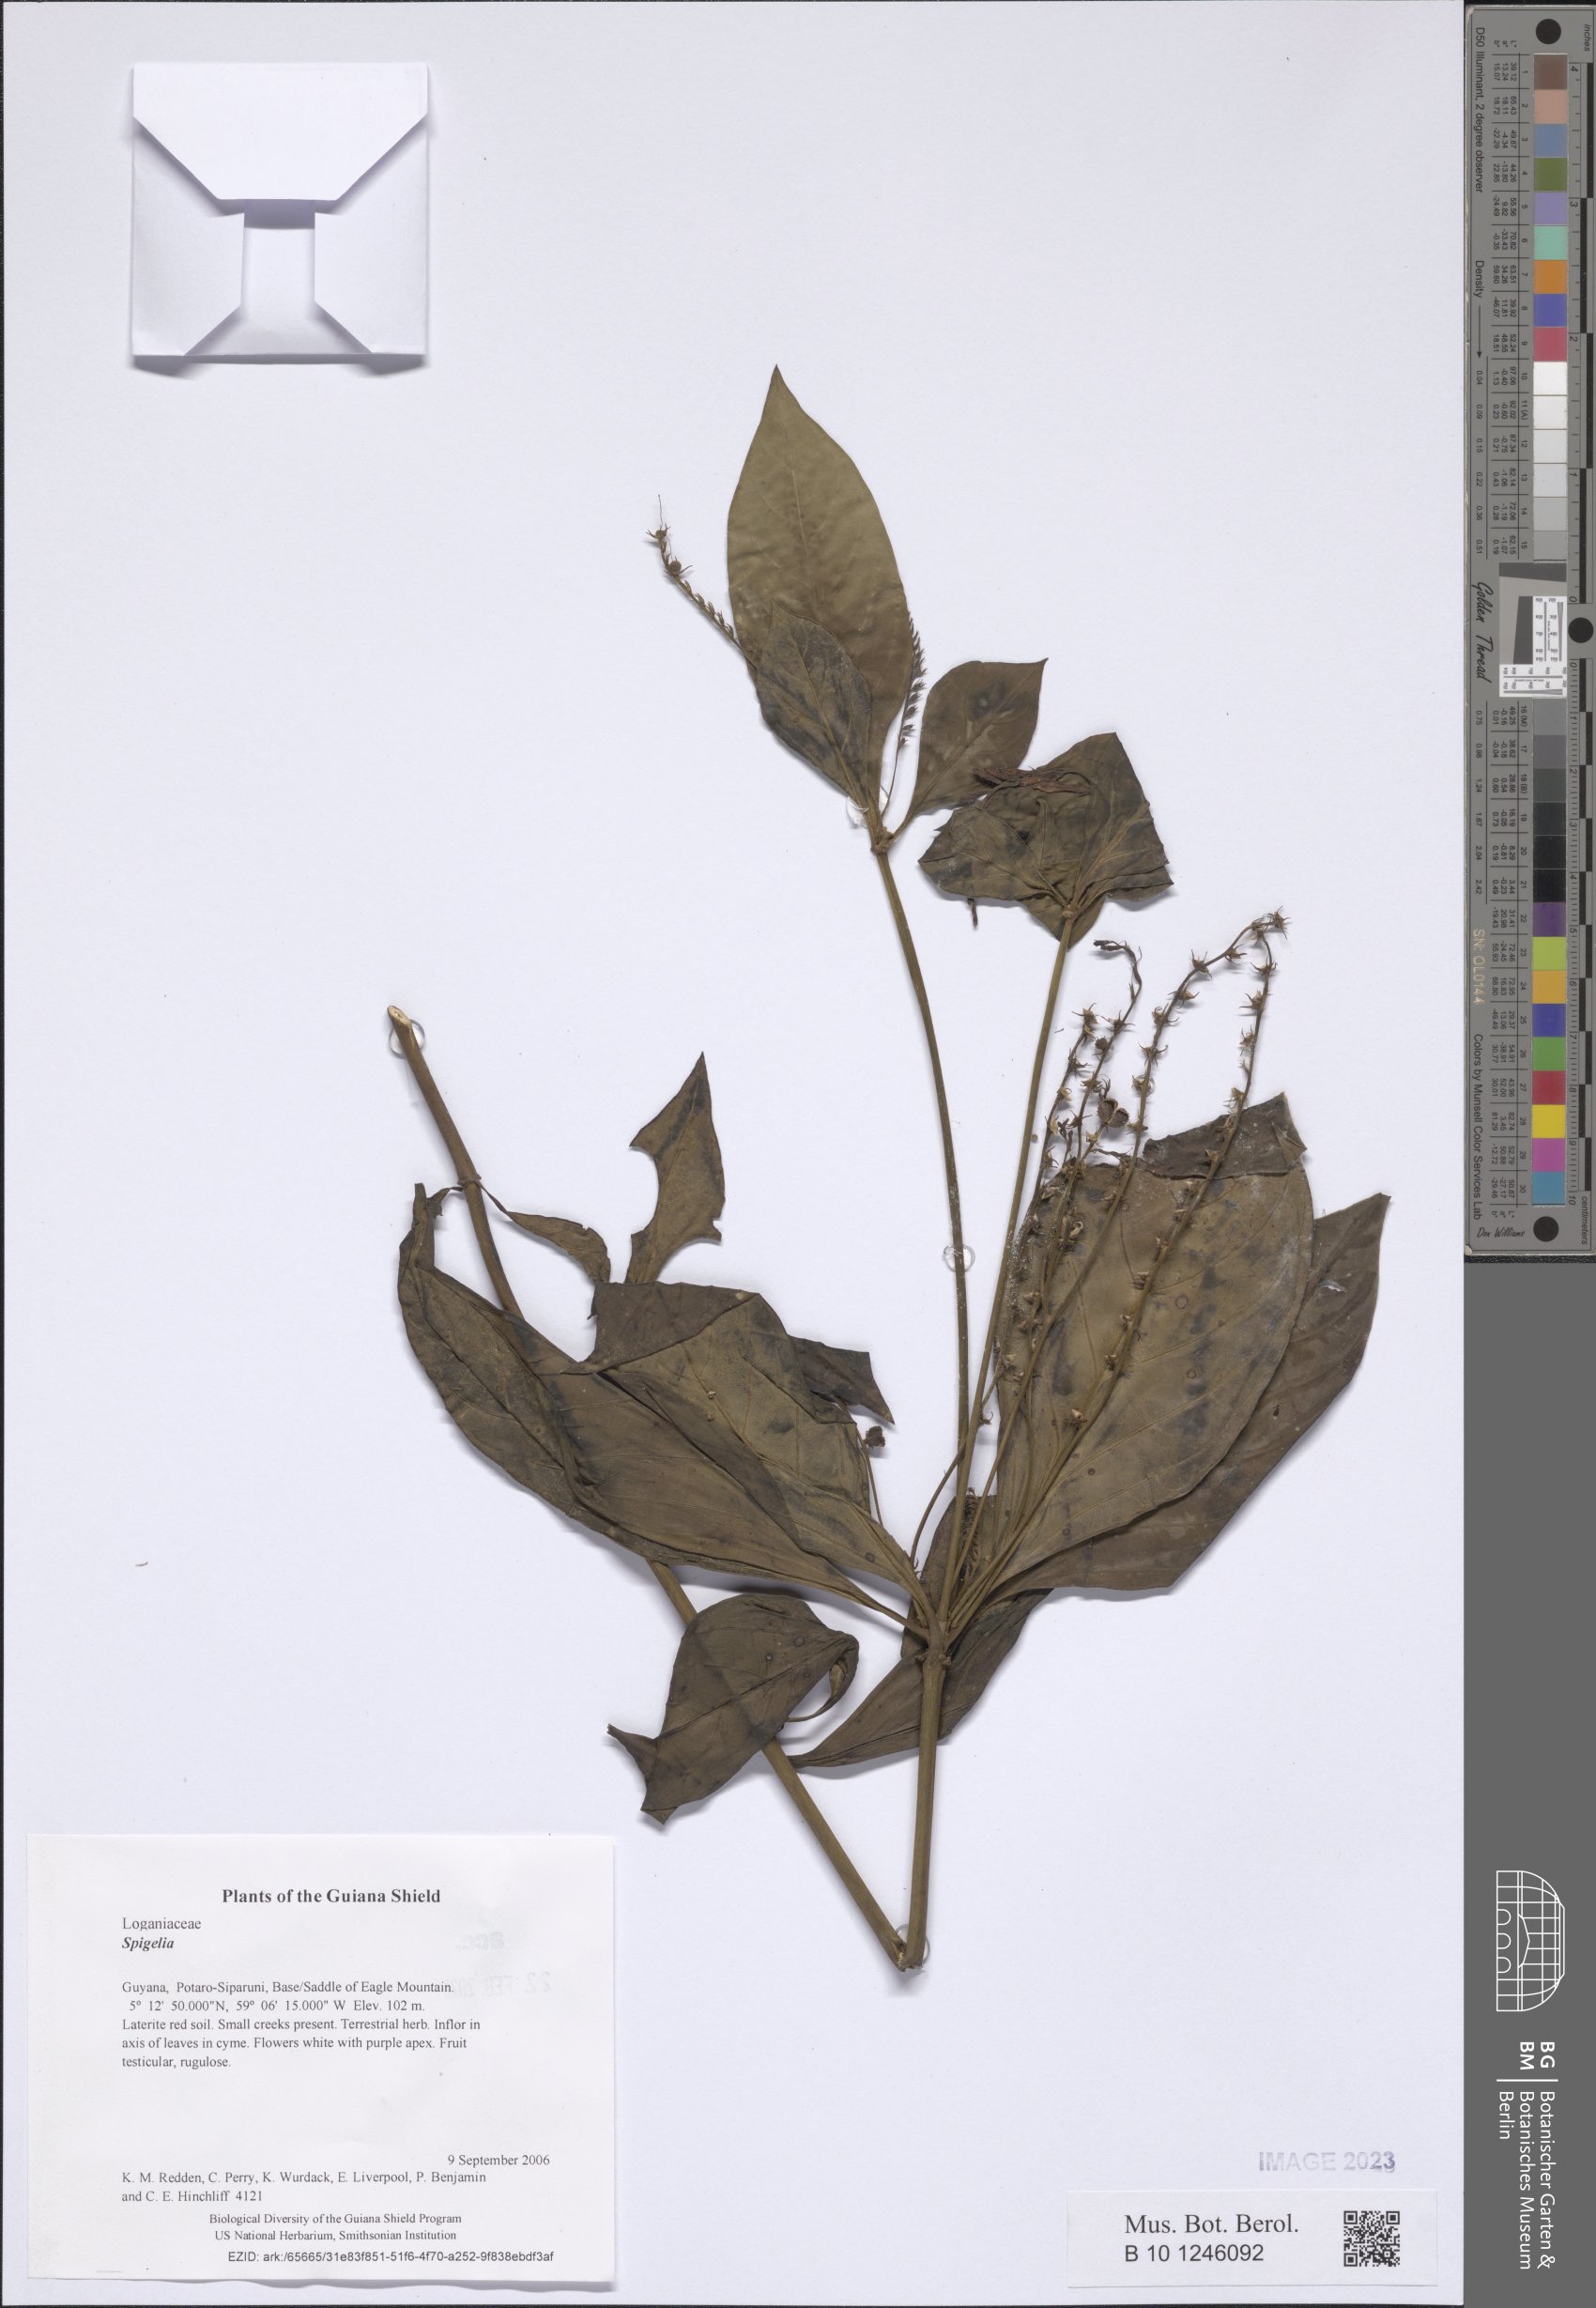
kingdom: Plantae
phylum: Tracheophyta
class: Magnoliopsida
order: Gentianales
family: Loganiaceae
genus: Spigelia
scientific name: Spigelia
